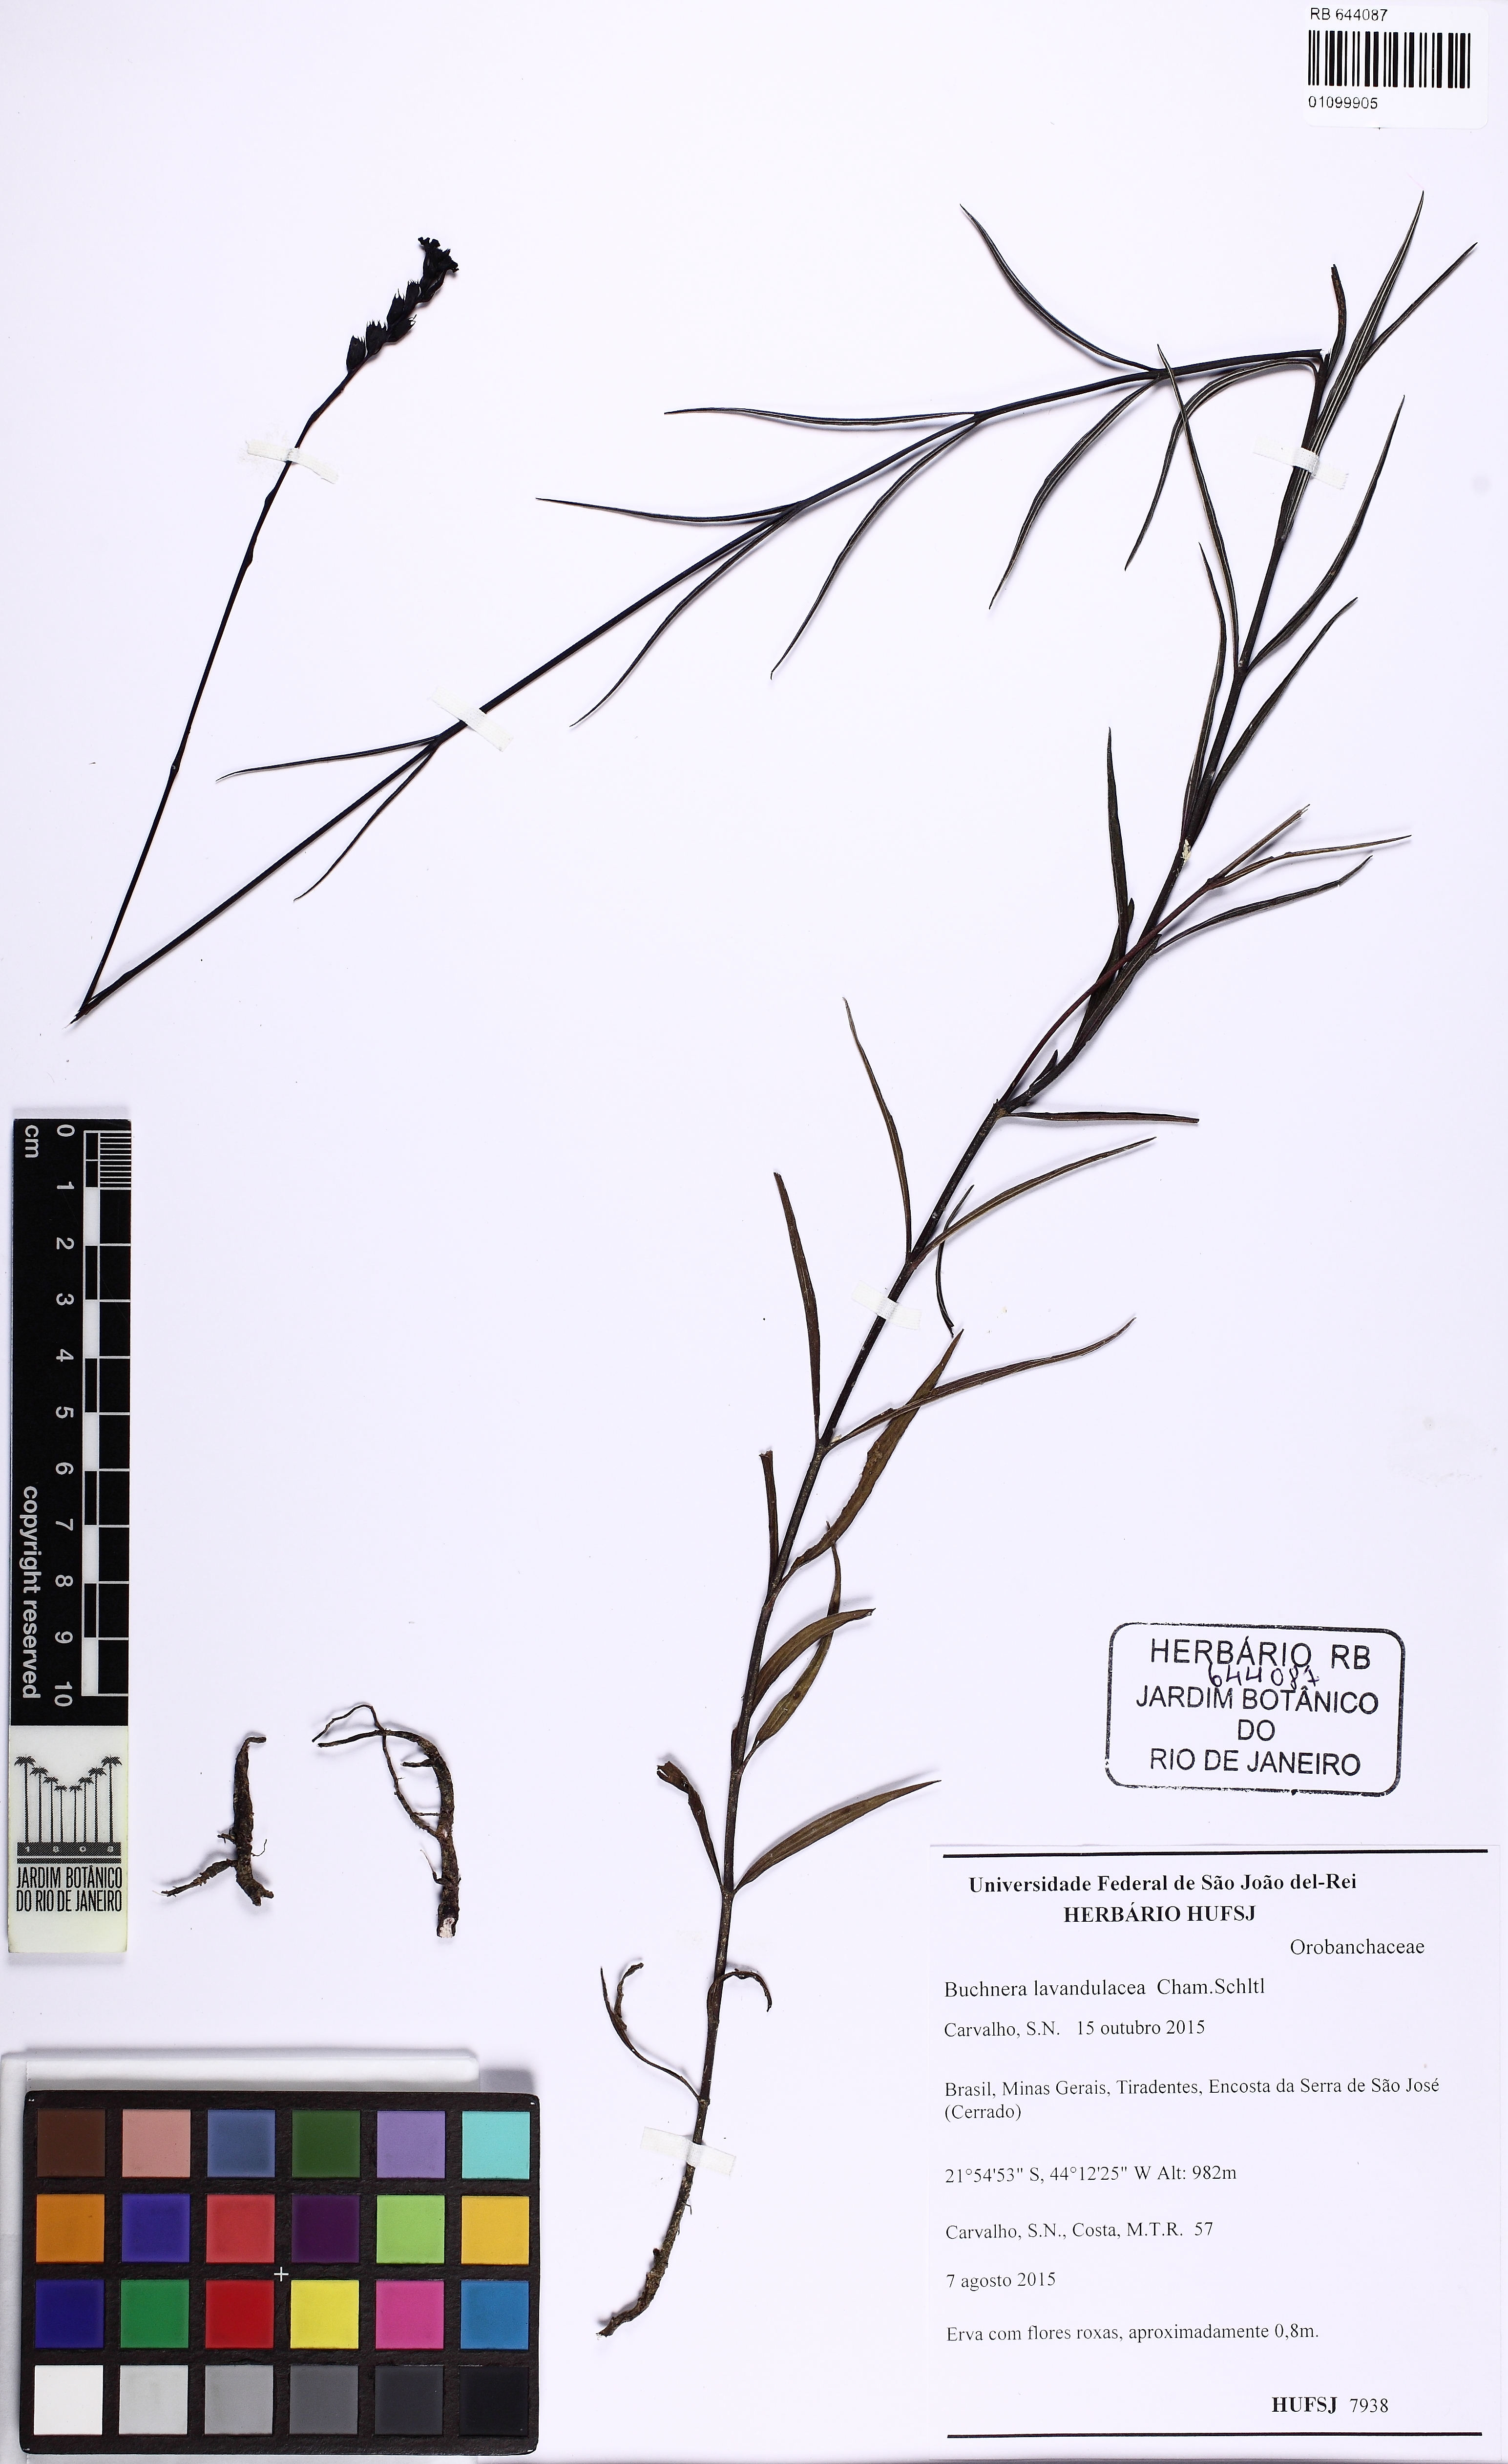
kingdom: Plantae
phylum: Tracheophyta
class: Magnoliopsida
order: Lamiales
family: Orobanchaceae
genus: Buchnera
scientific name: Buchnera lavandulacea
